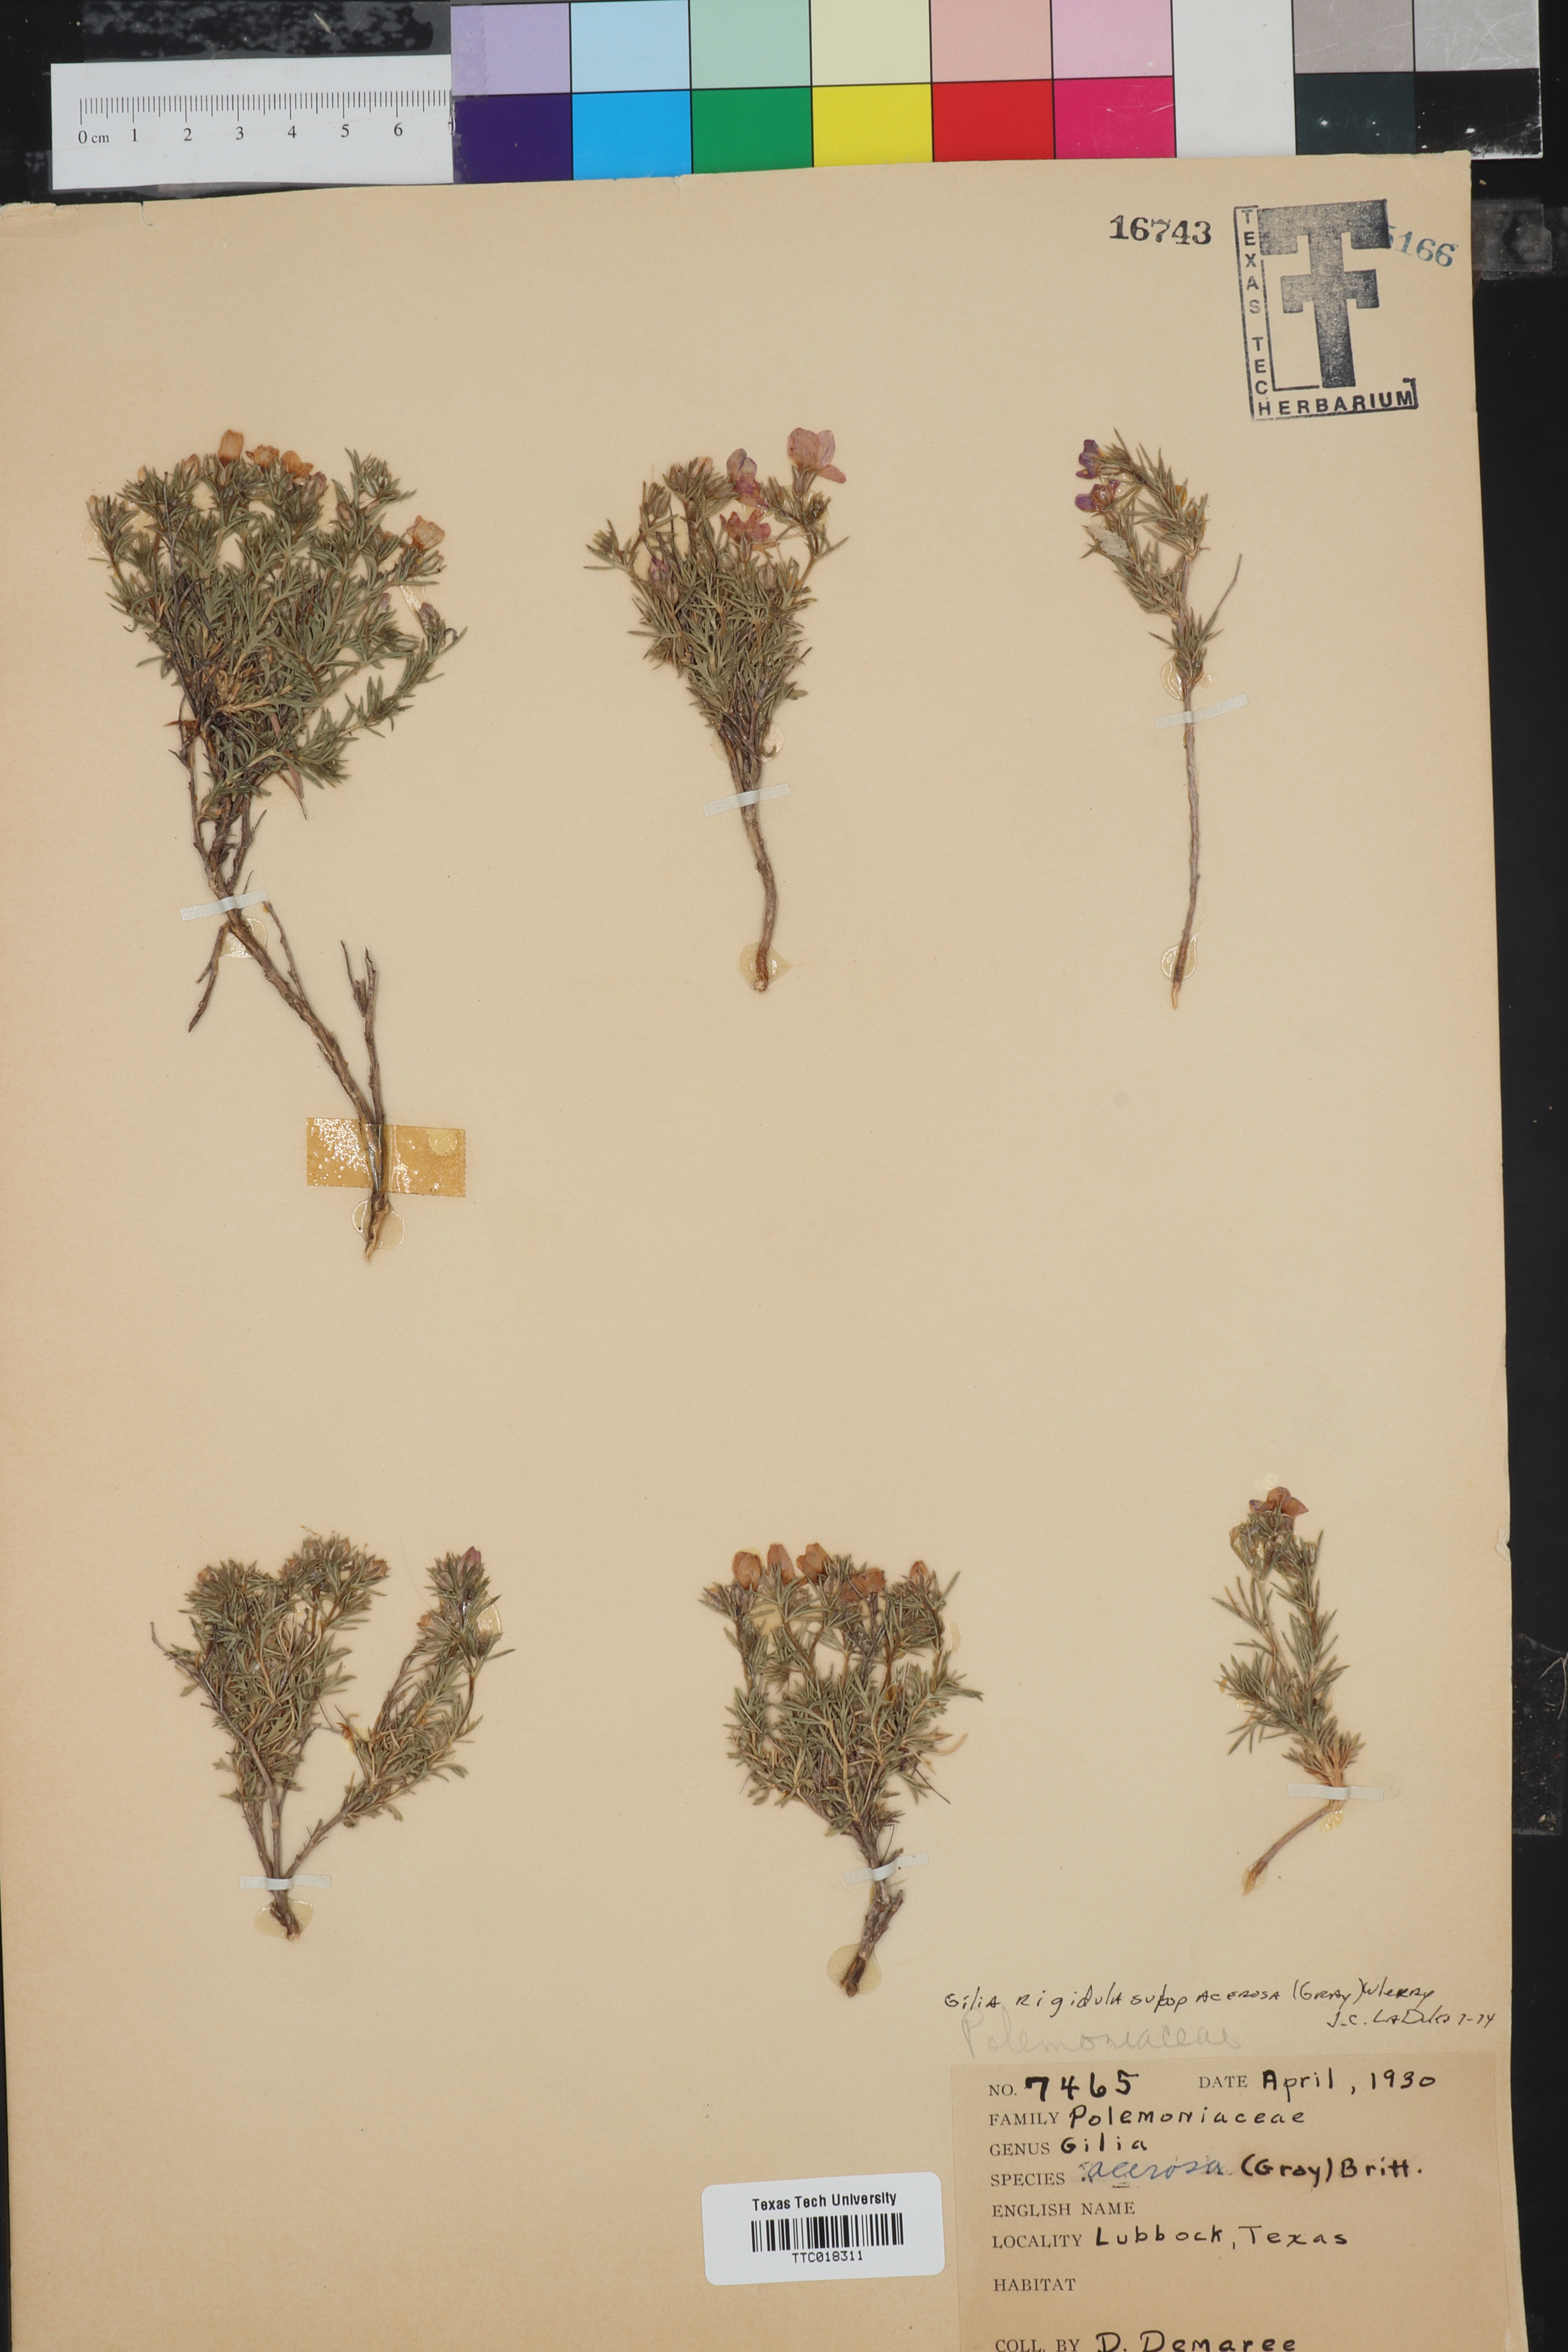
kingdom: Plantae
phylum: Tracheophyta
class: Magnoliopsida
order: Ericales
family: Polemoniaceae
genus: Giliastrum
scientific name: Giliastrum acerosum
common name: Bluebowls
